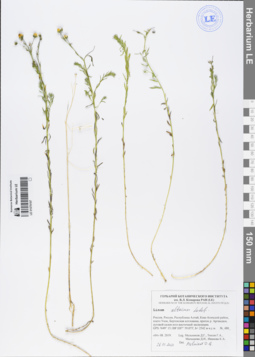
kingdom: Plantae
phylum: Tracheophyta
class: Magnoliopsida
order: Malpighiales
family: Linaceae
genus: Linum
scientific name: Linum altaicum
